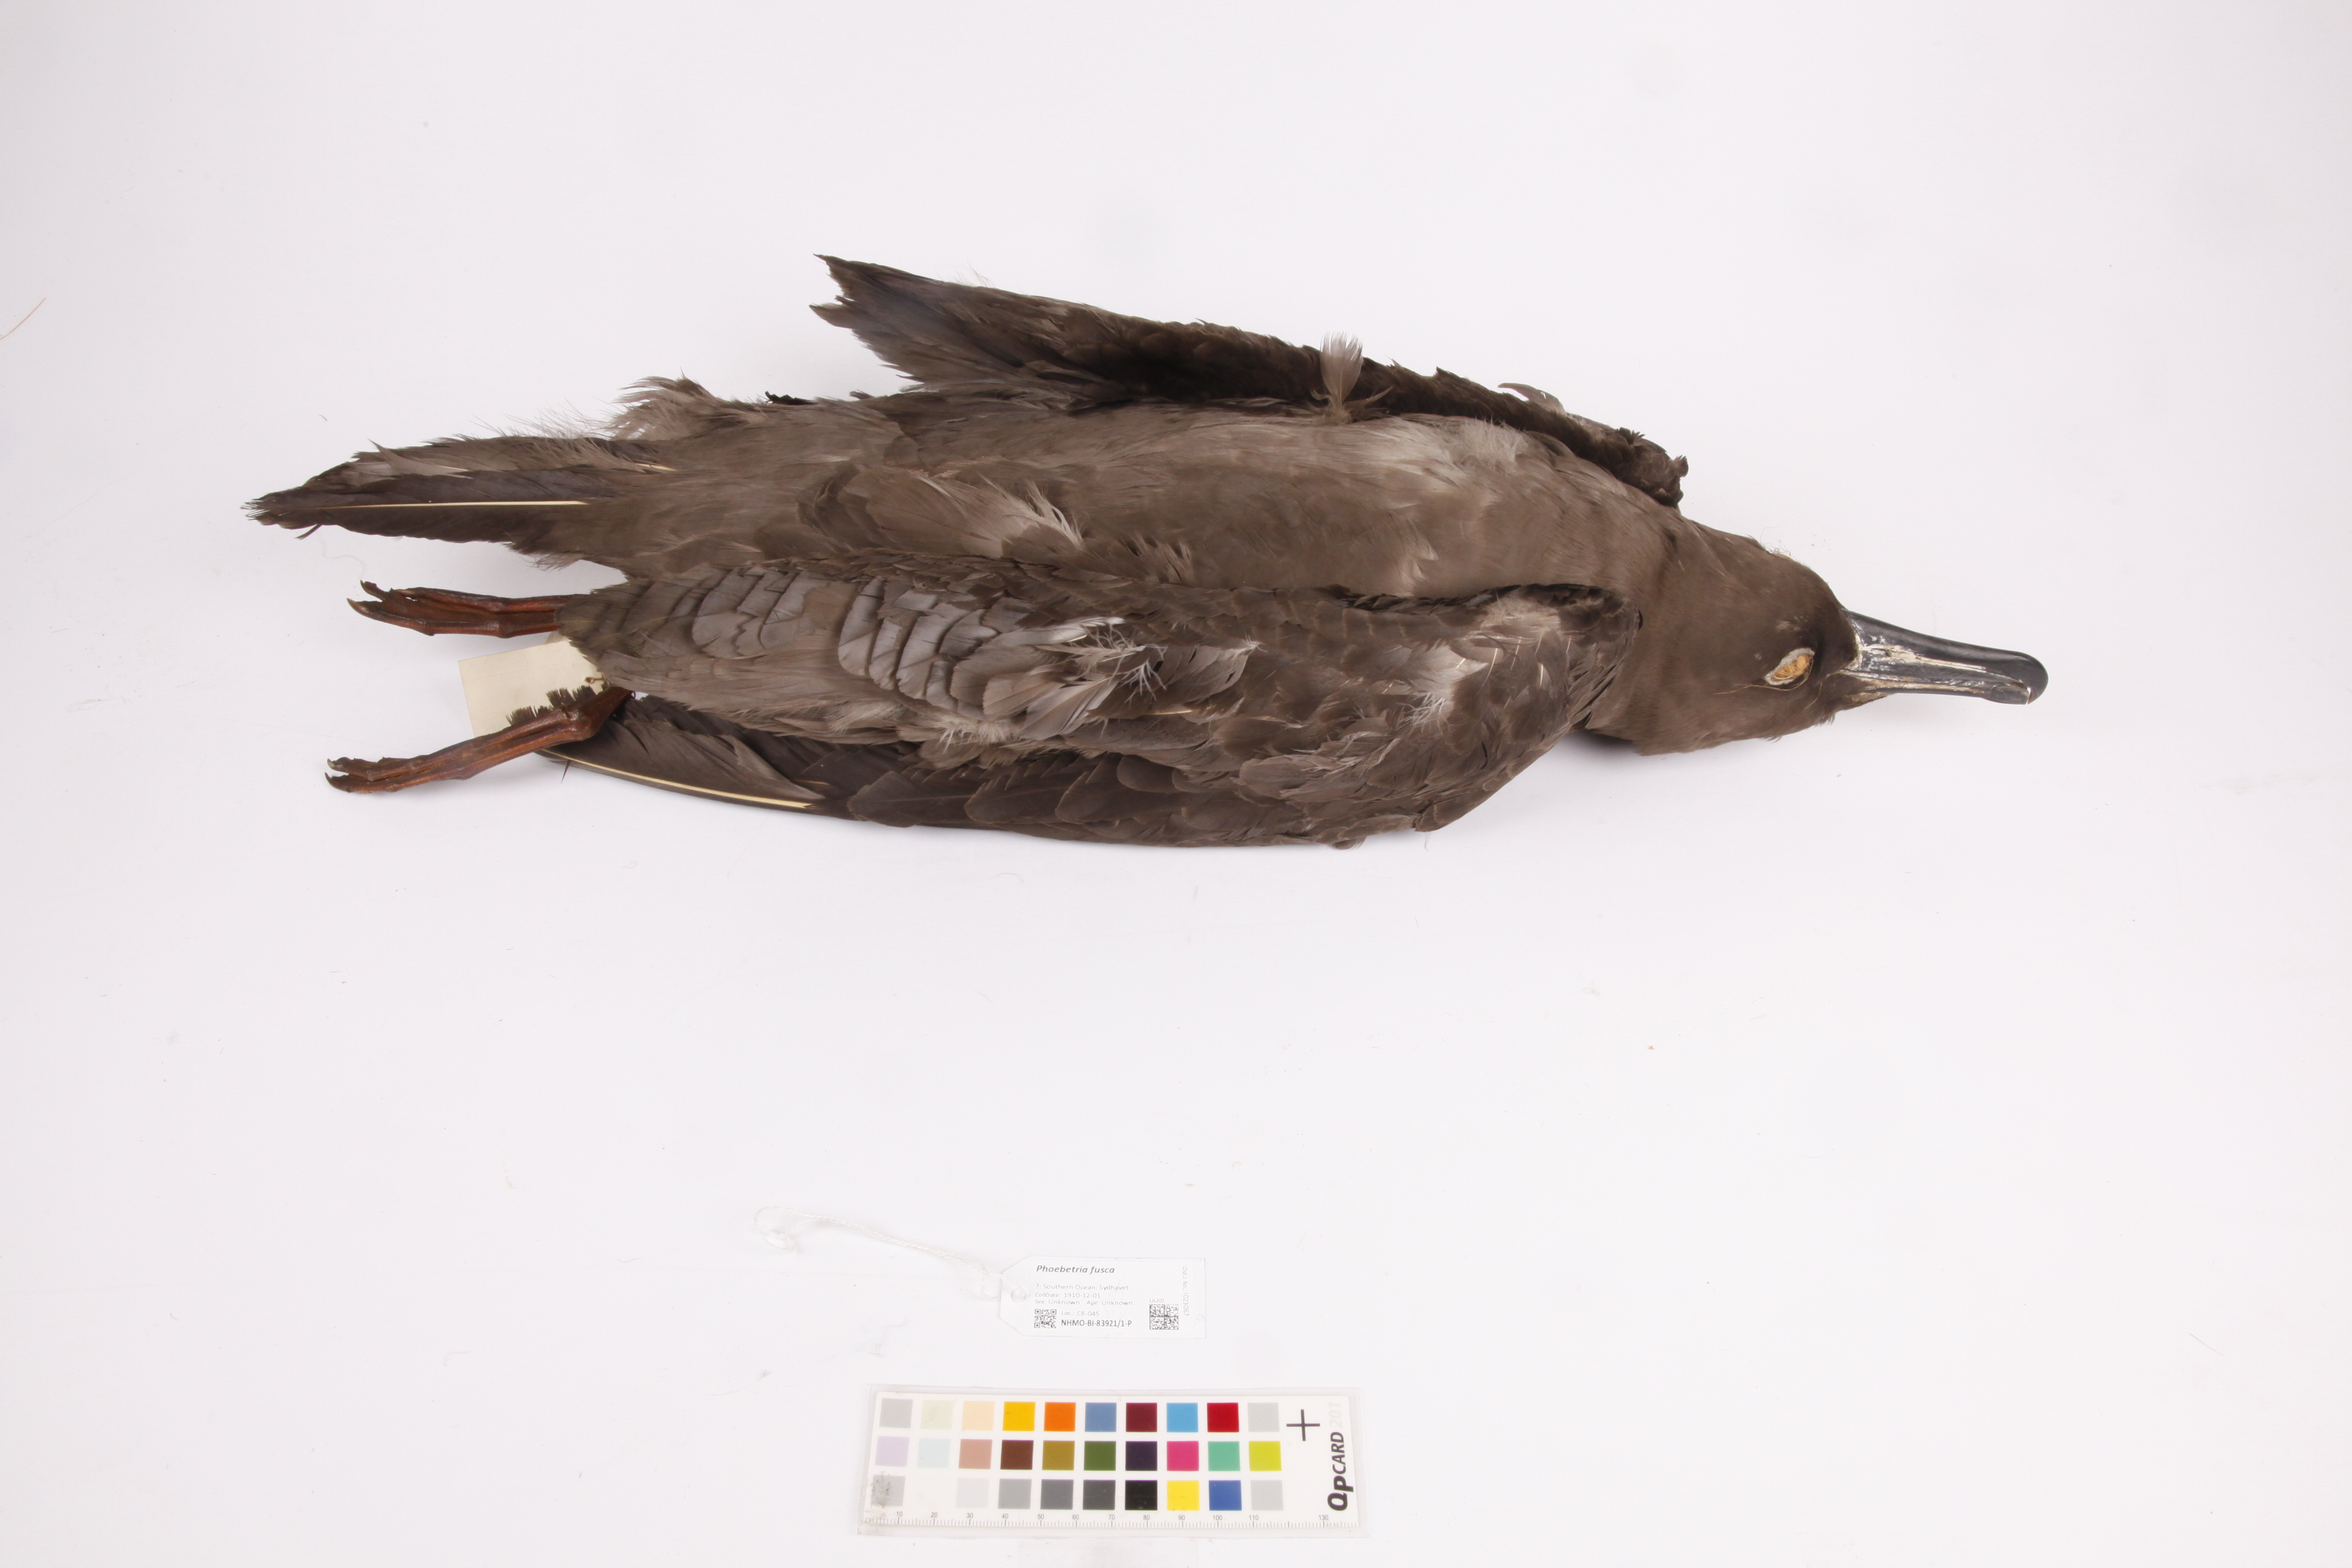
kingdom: Animalia
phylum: Chordata
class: Aves
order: Procellariiformes
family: Diomedeidae
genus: Phoebetria
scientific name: Phoebetria fusca
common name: Sooty albatross
